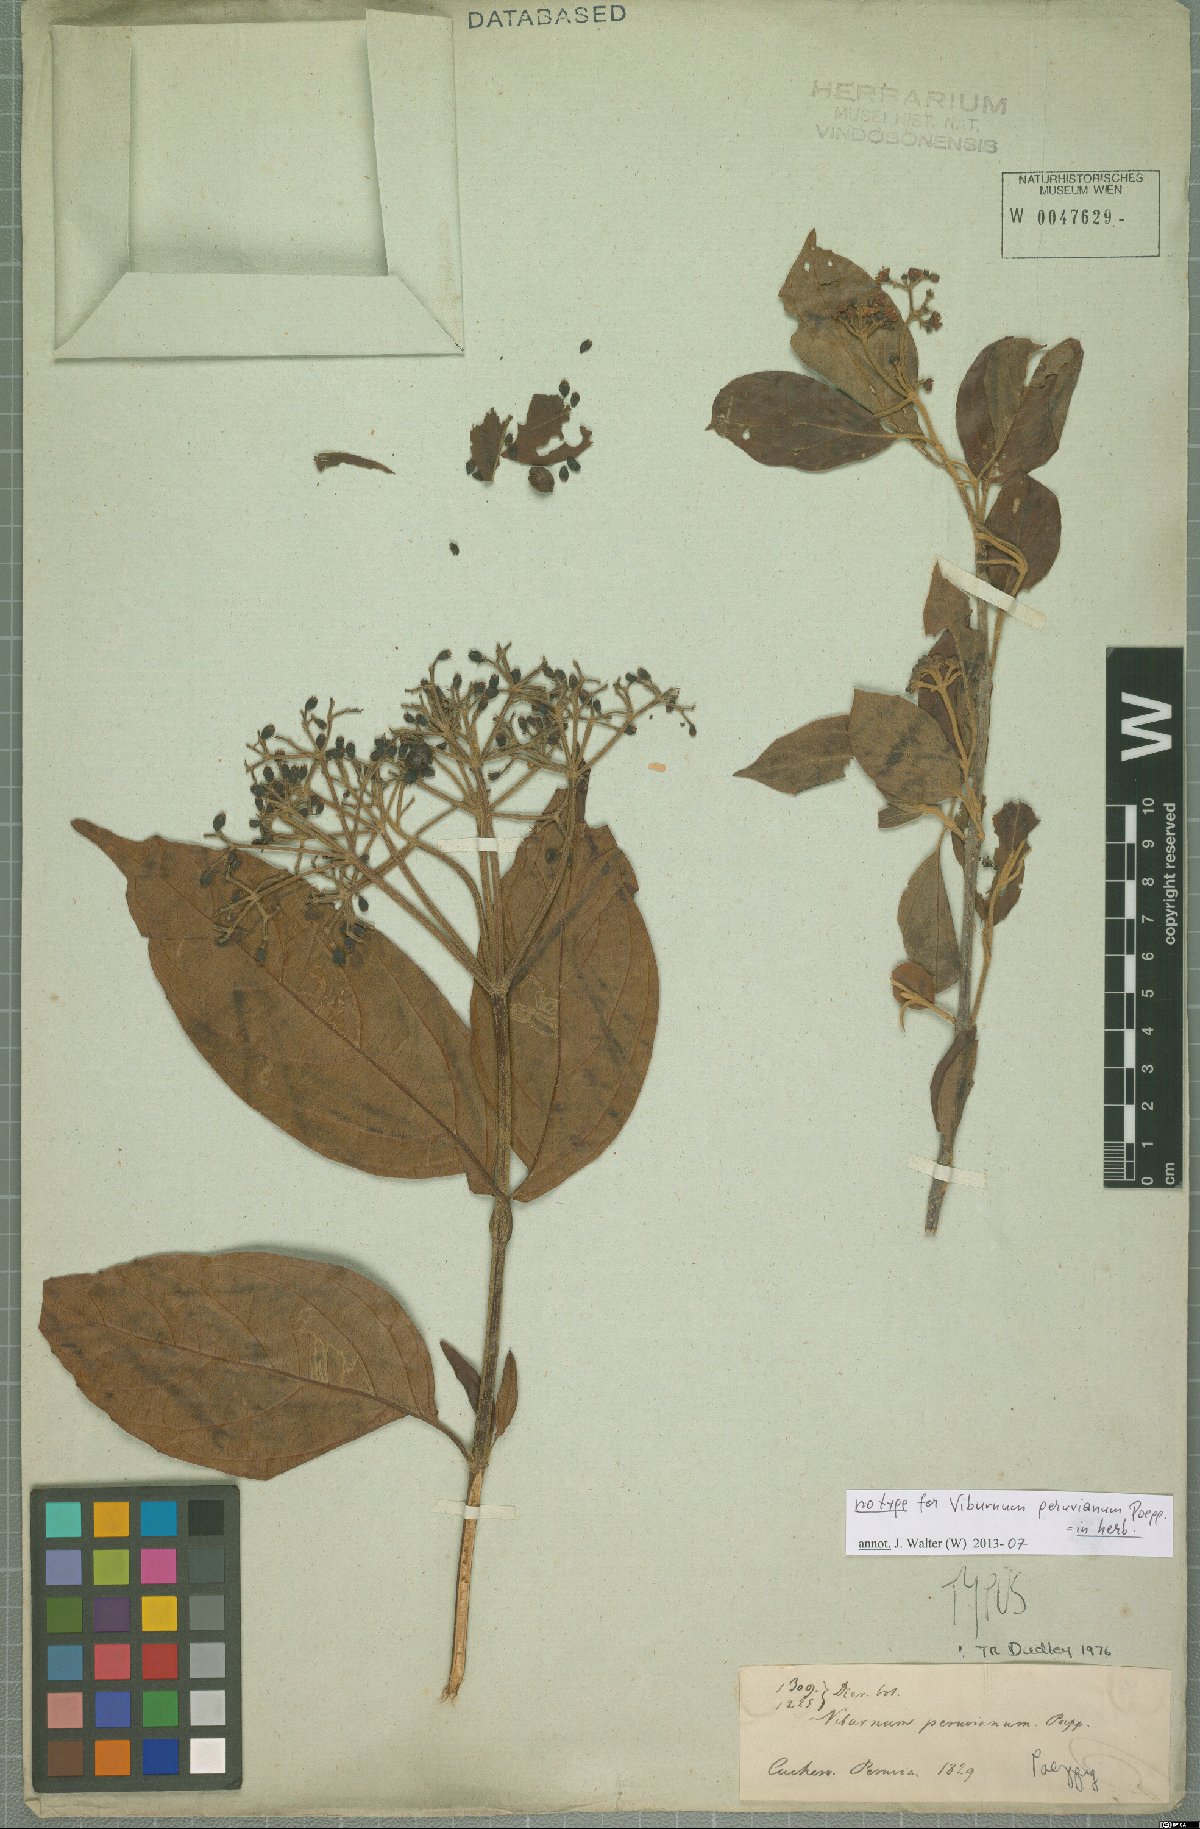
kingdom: Plantae
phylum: Tracheophyta
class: Magnoliopsida
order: Dipsacales
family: Viburnaceae
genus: Viburnum
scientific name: Viburnum peruvianum
